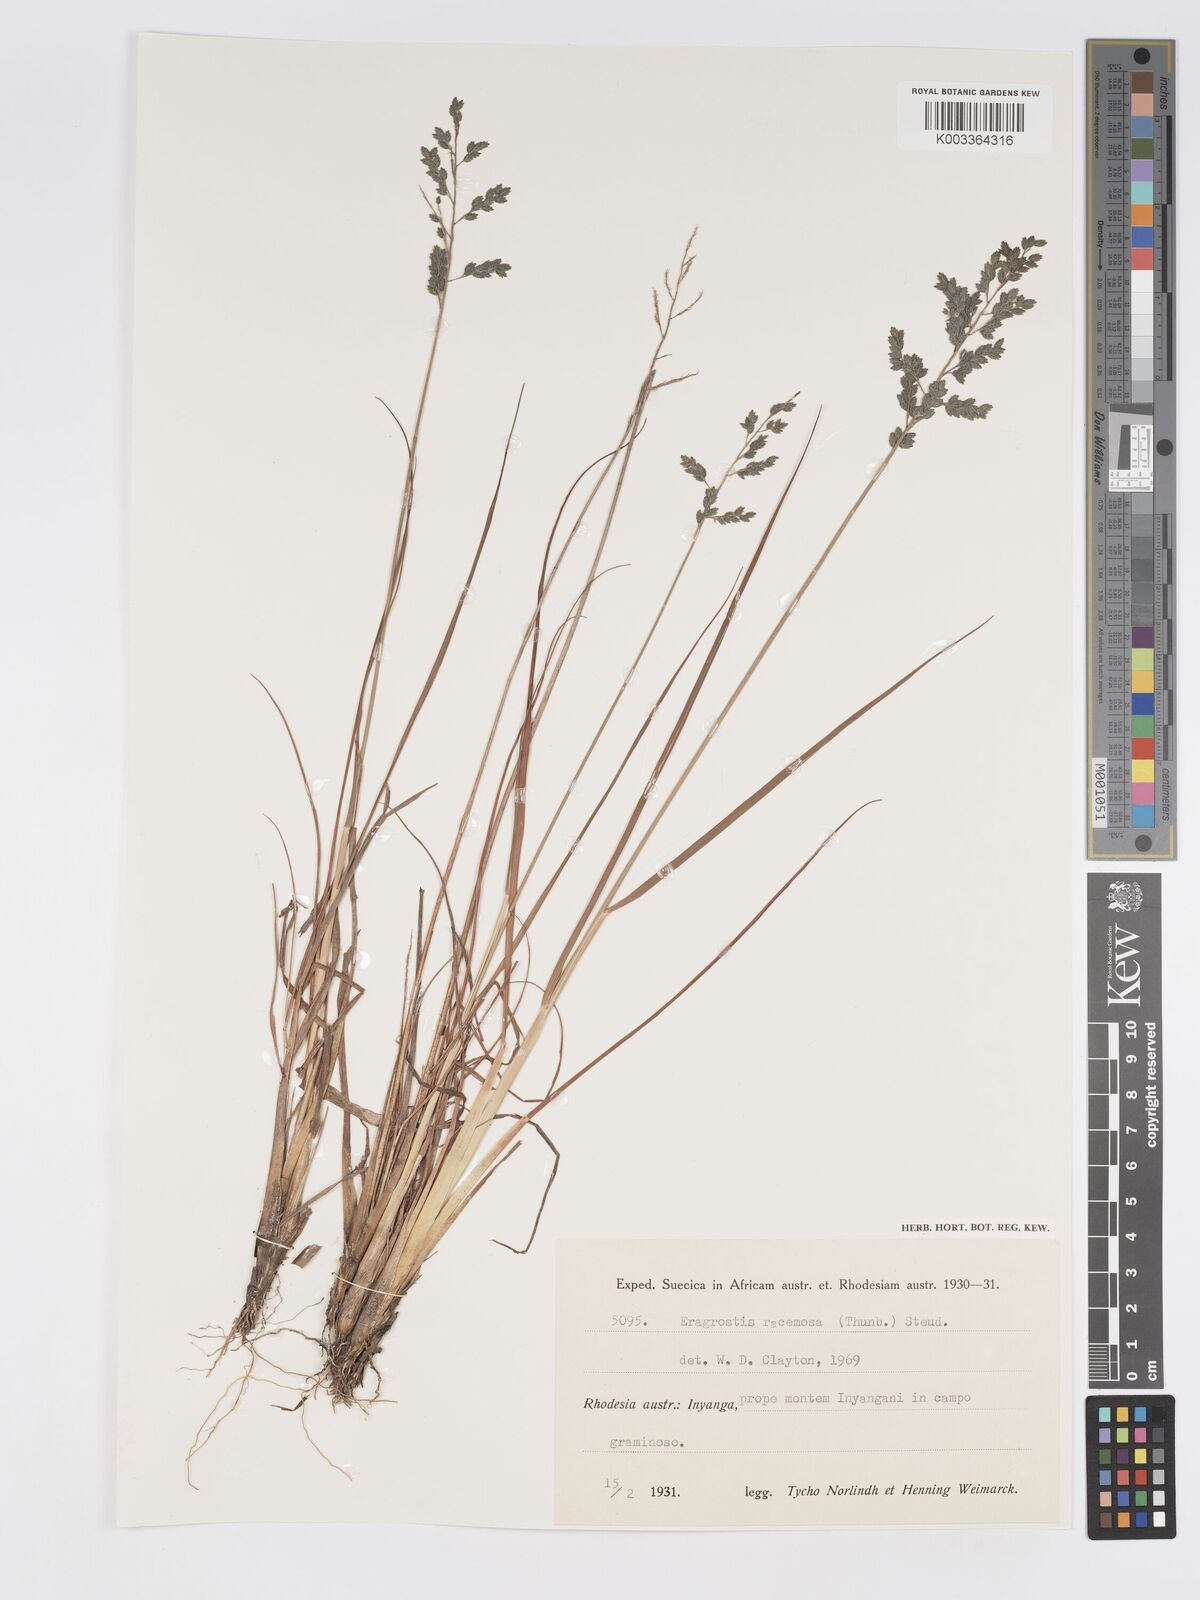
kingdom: Plantae
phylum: Tracheophyta
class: Liliopsida
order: Poales
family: Poaceae
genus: Eragrostis
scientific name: Eragrostis racemosa
